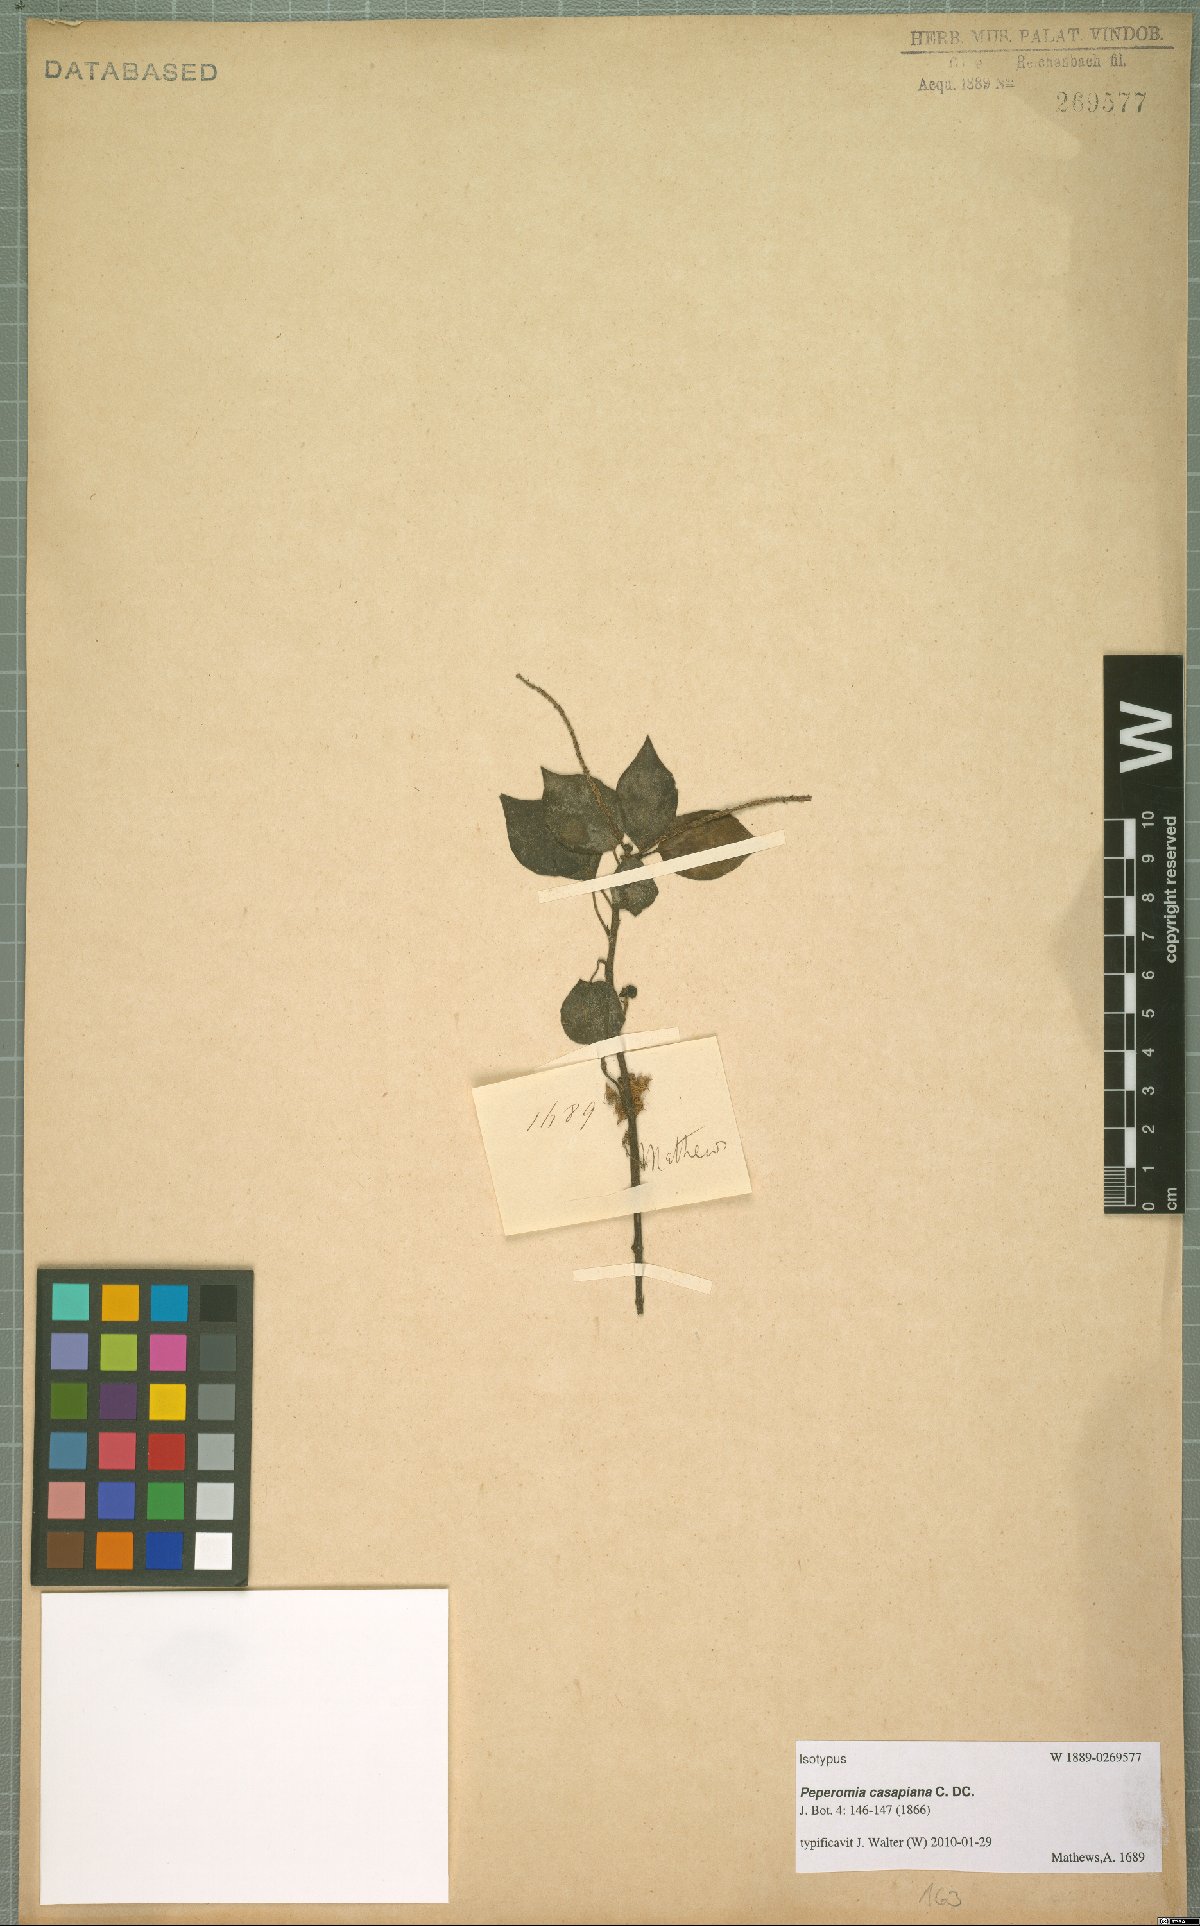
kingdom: Plantae
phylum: Tracheophyta
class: Magnoliopsida
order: Piperales
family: Piperaceae
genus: Peperomia
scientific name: Peperomia casapiana
